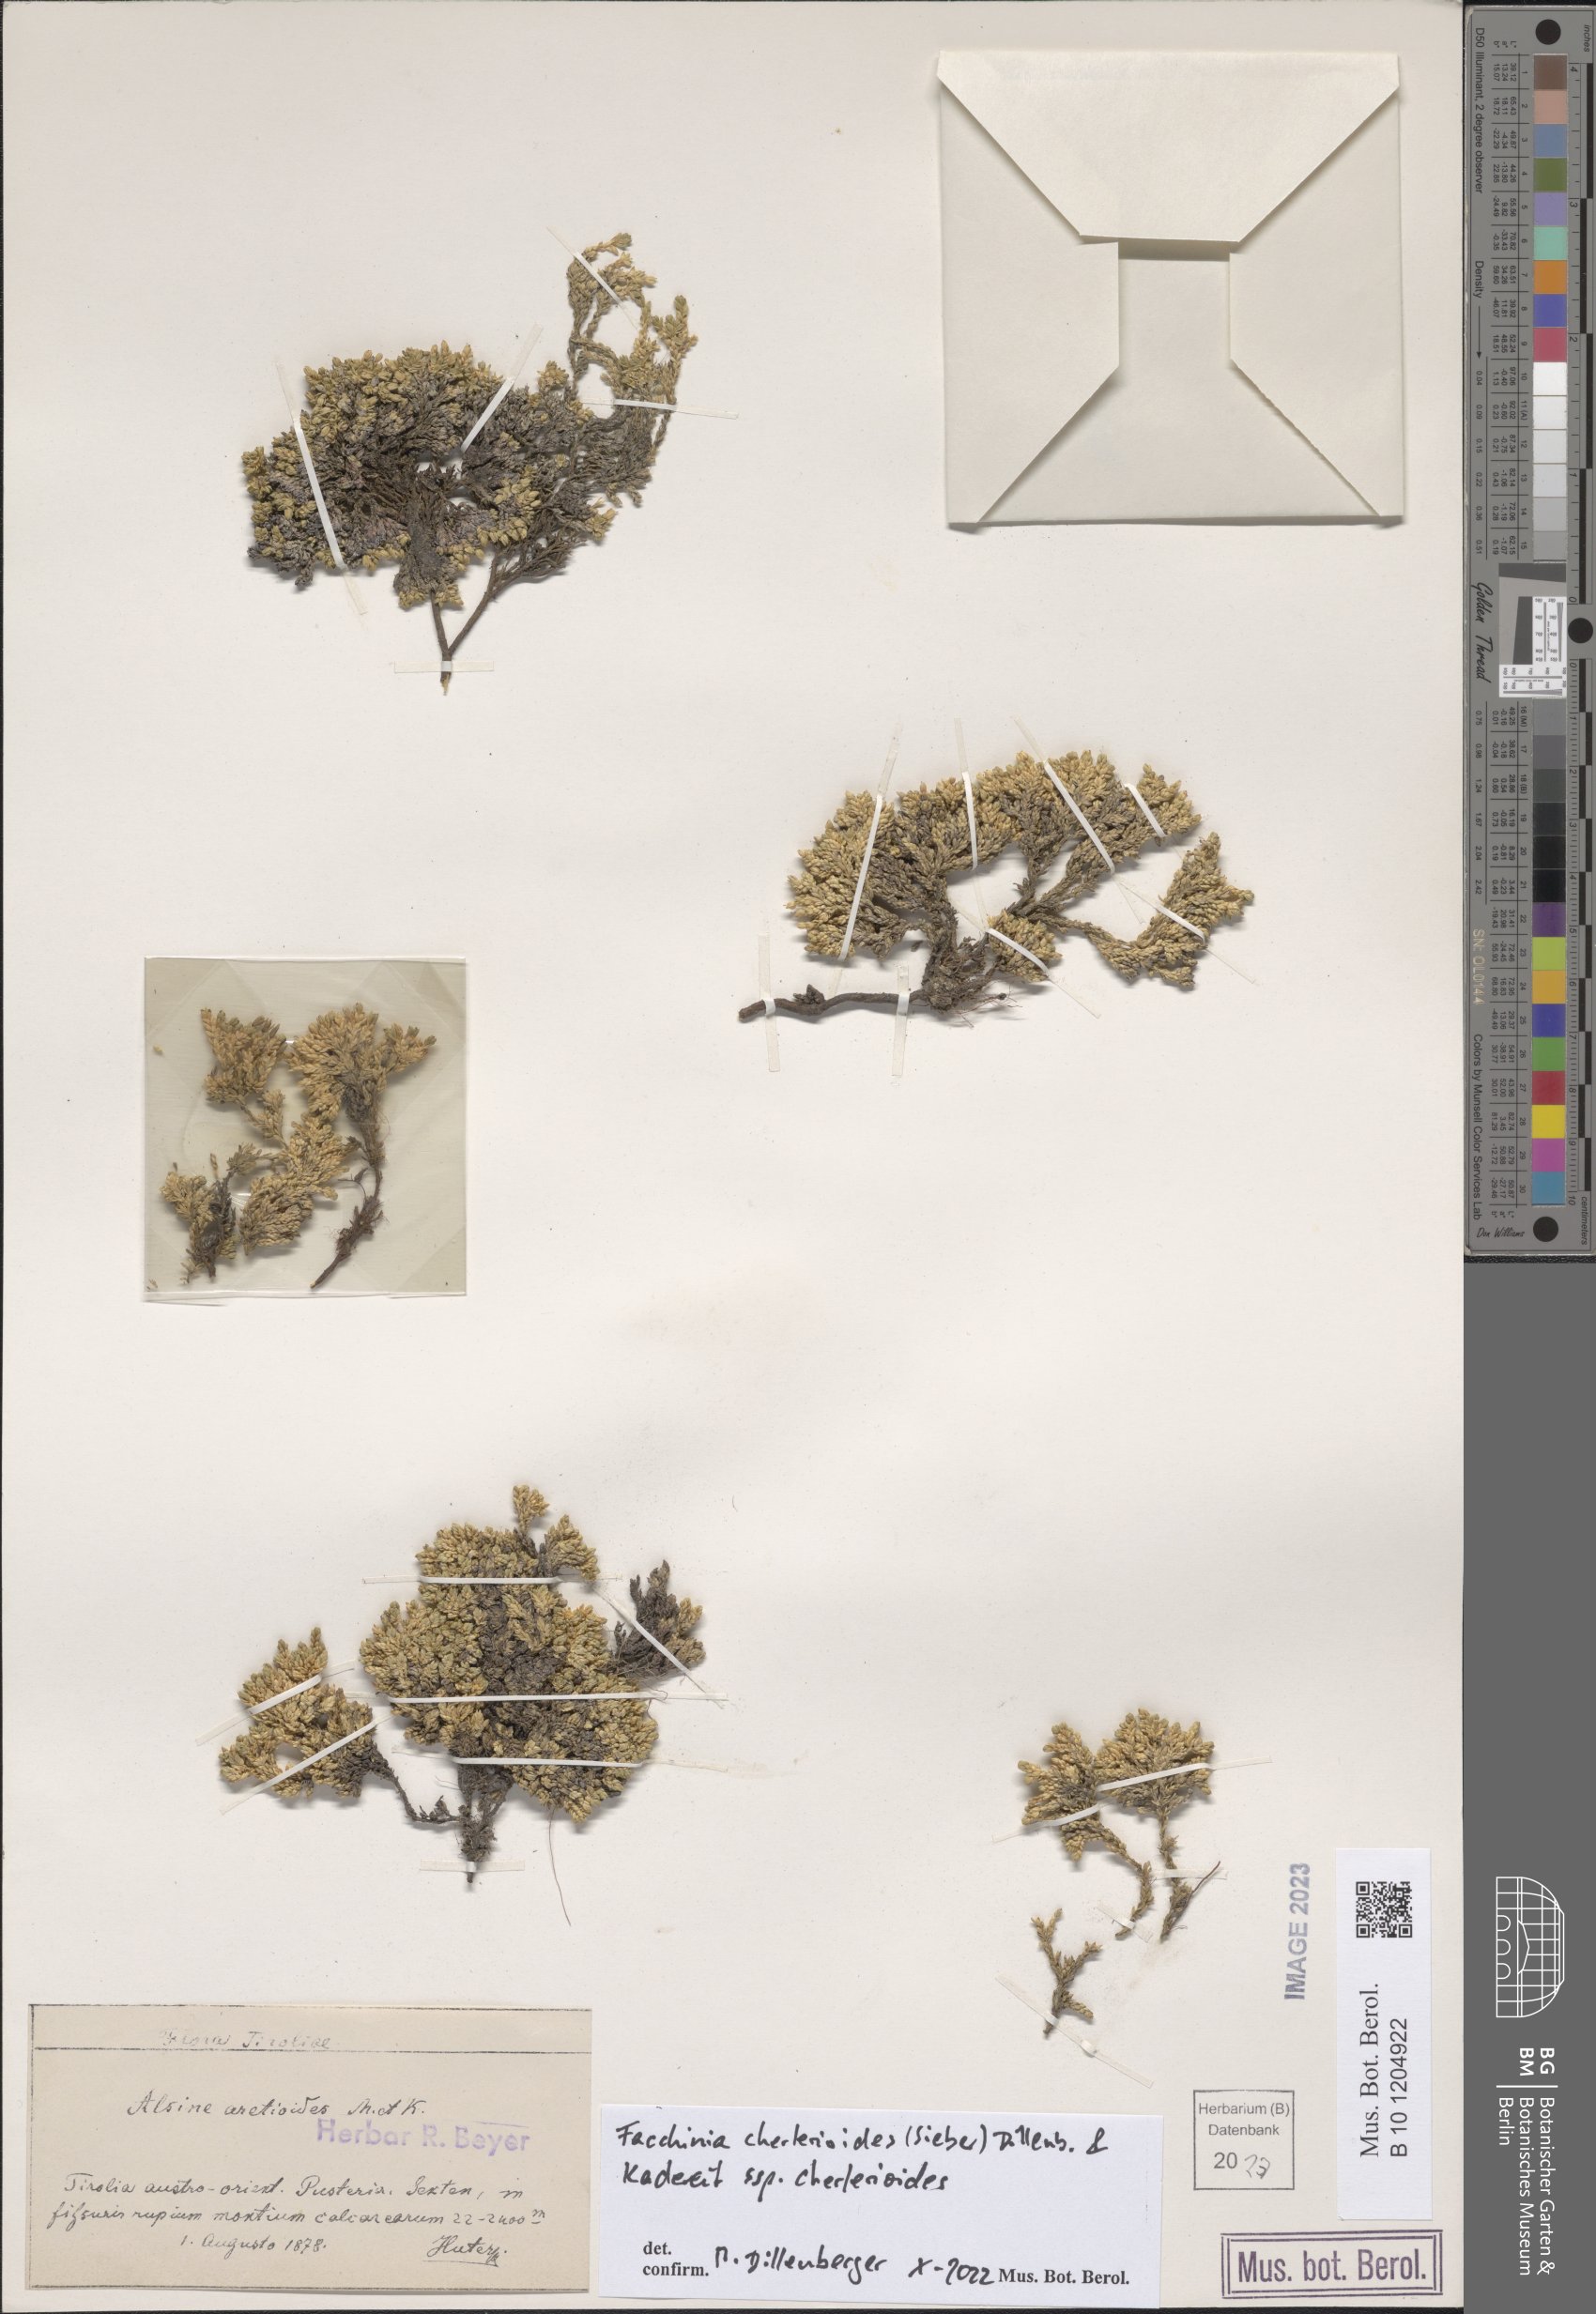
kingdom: Plantae
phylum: Tracheophyta
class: Magnoliopsida
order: Caryophyllales
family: Caryophyllaceae
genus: Facchinia
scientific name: Facchinia cherlerioides
